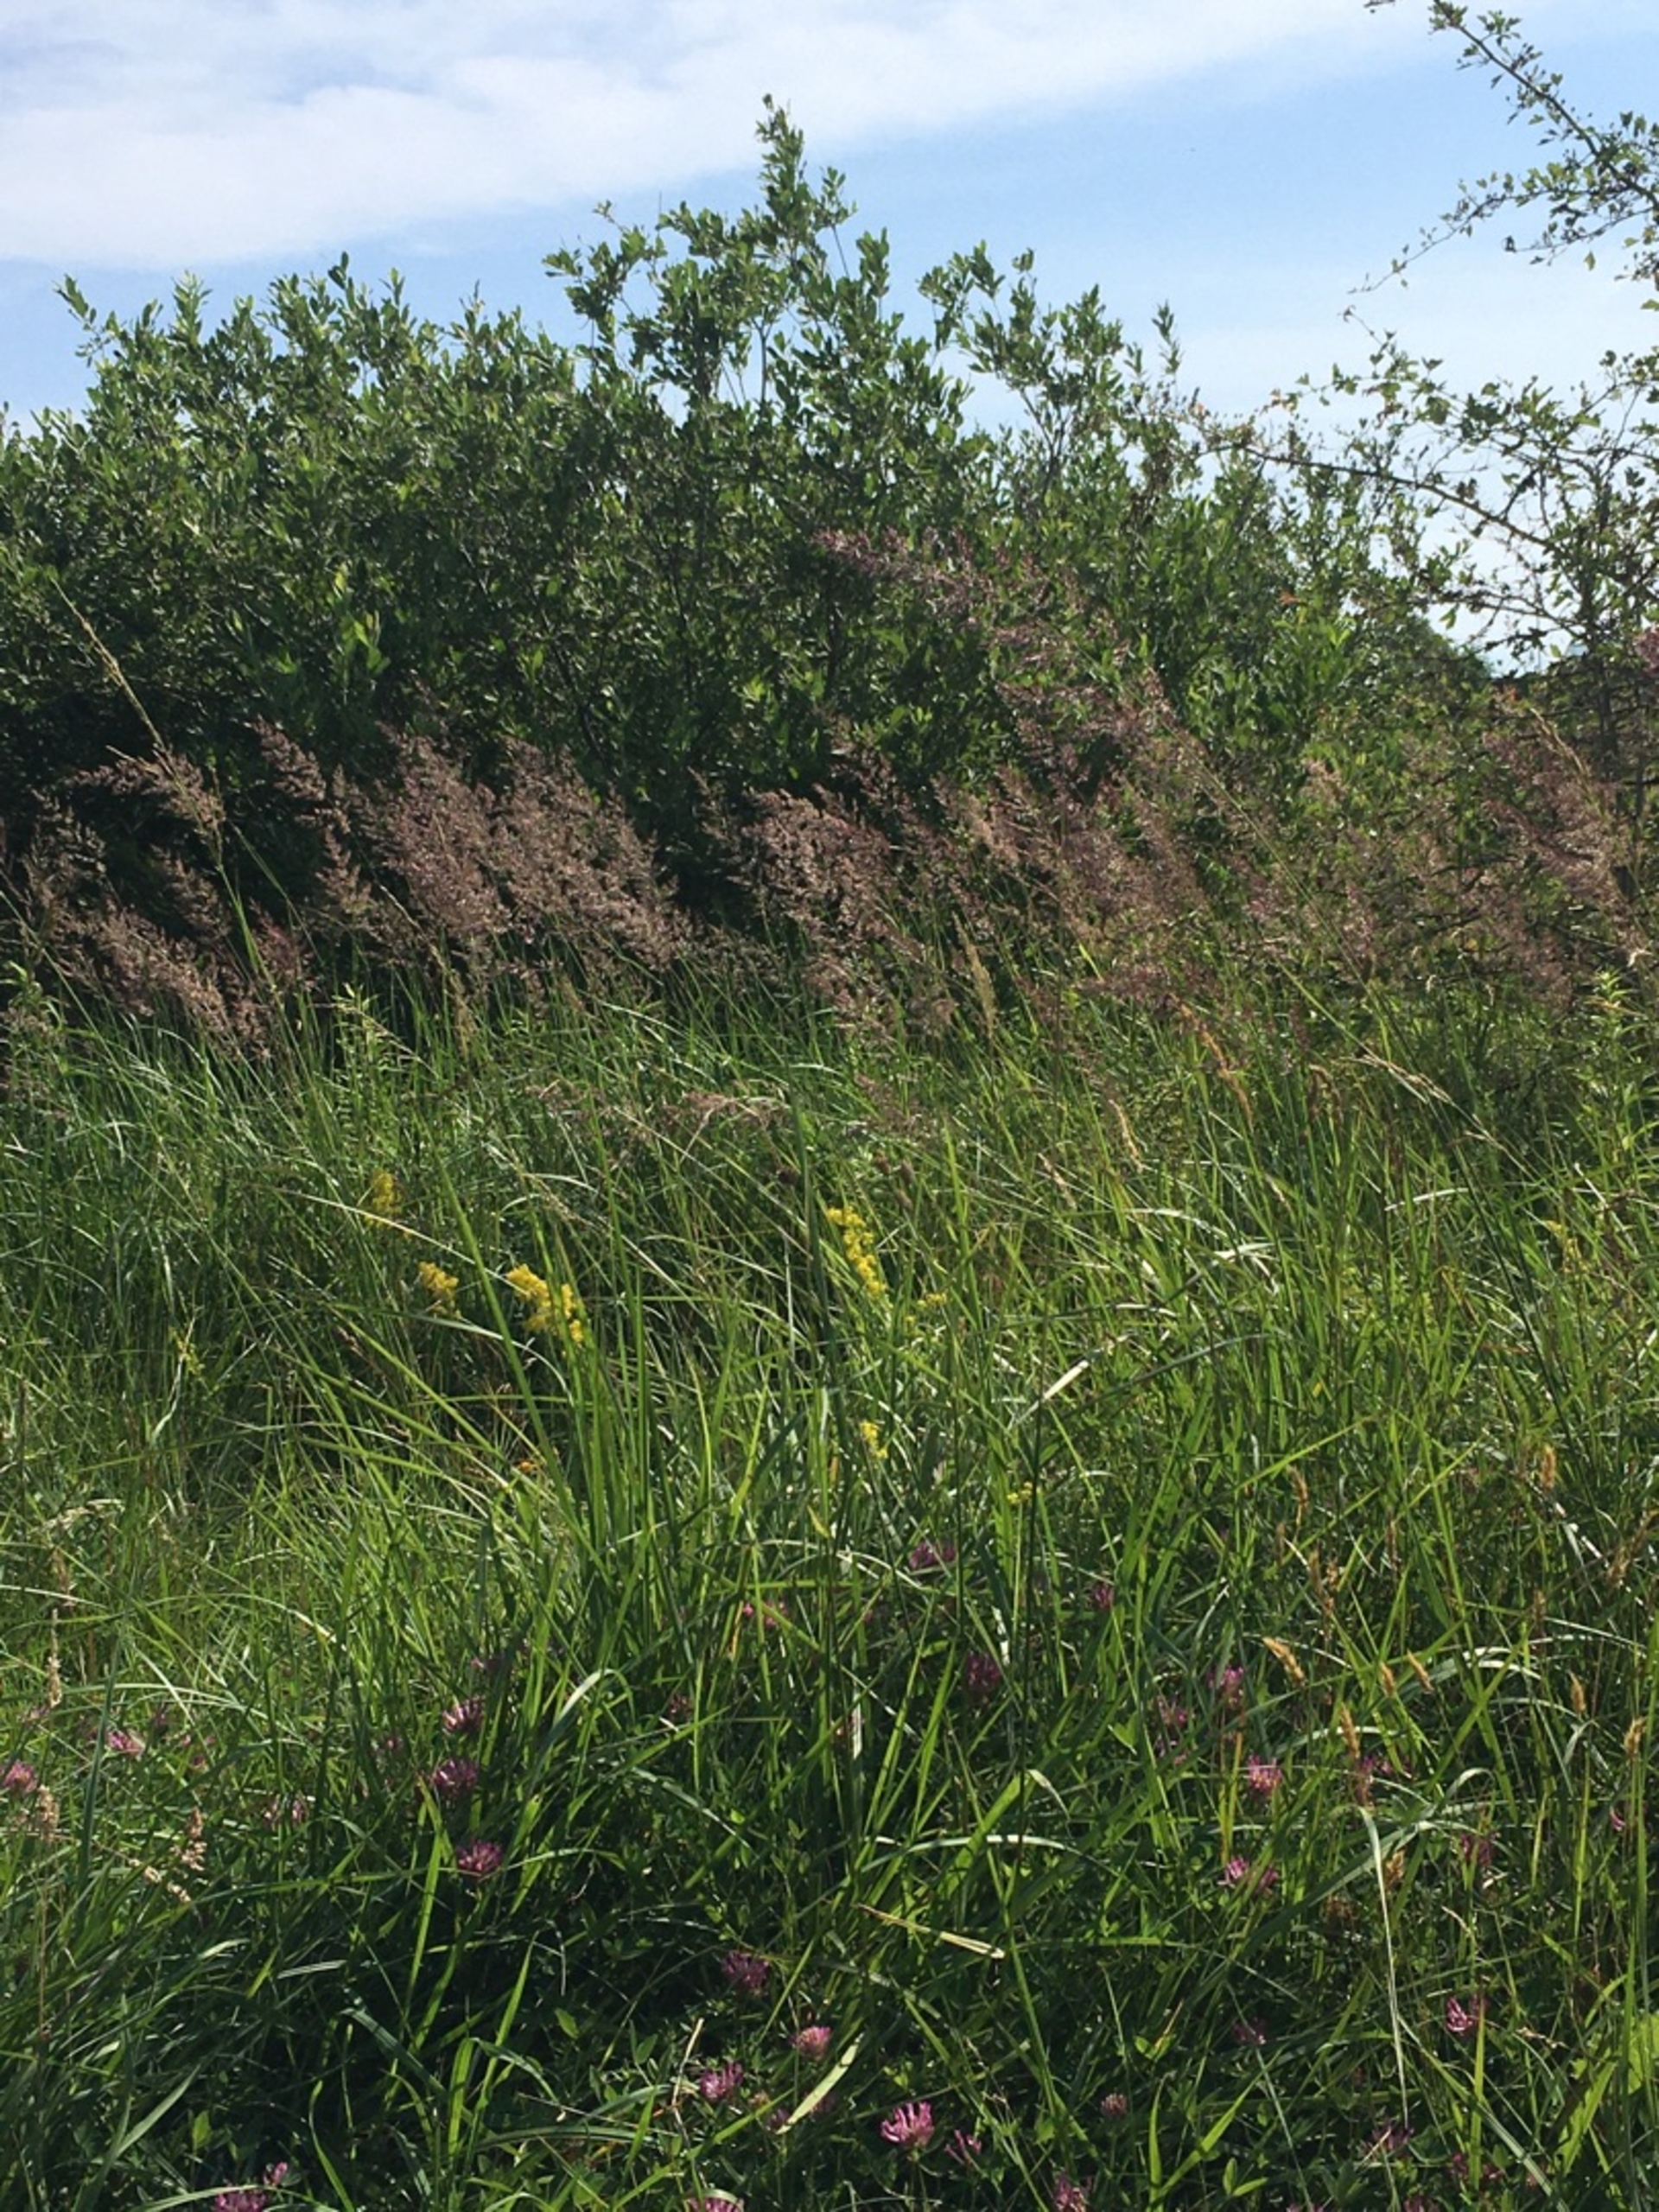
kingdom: Plantae
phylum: Tracheophyta
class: Liliopsida
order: Poales
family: Poaceae
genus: Calamagrostis
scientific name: Calamagrostis epigejos
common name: Bjerg-rørhvene
